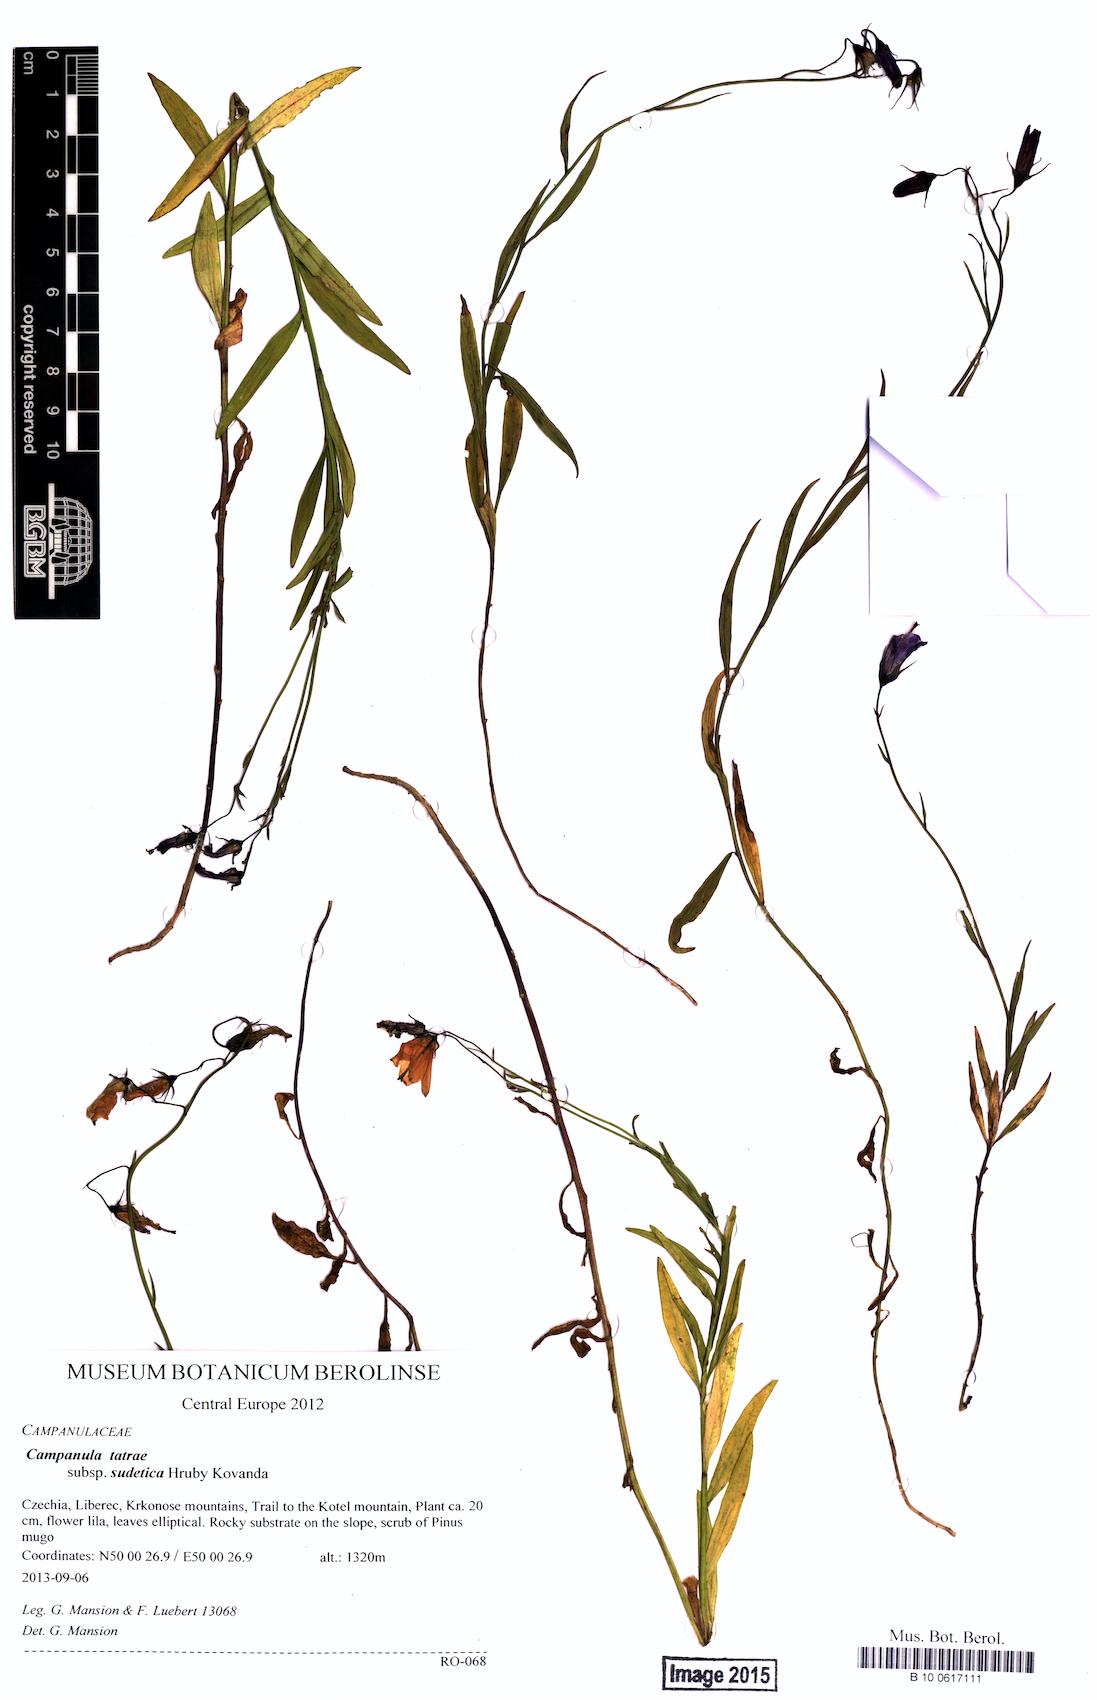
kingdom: Plantae
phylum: Tracheophyta
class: Magnoliopsida
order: Asterales
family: Campanulaceae
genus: Campanula
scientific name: Campanula tatrae
